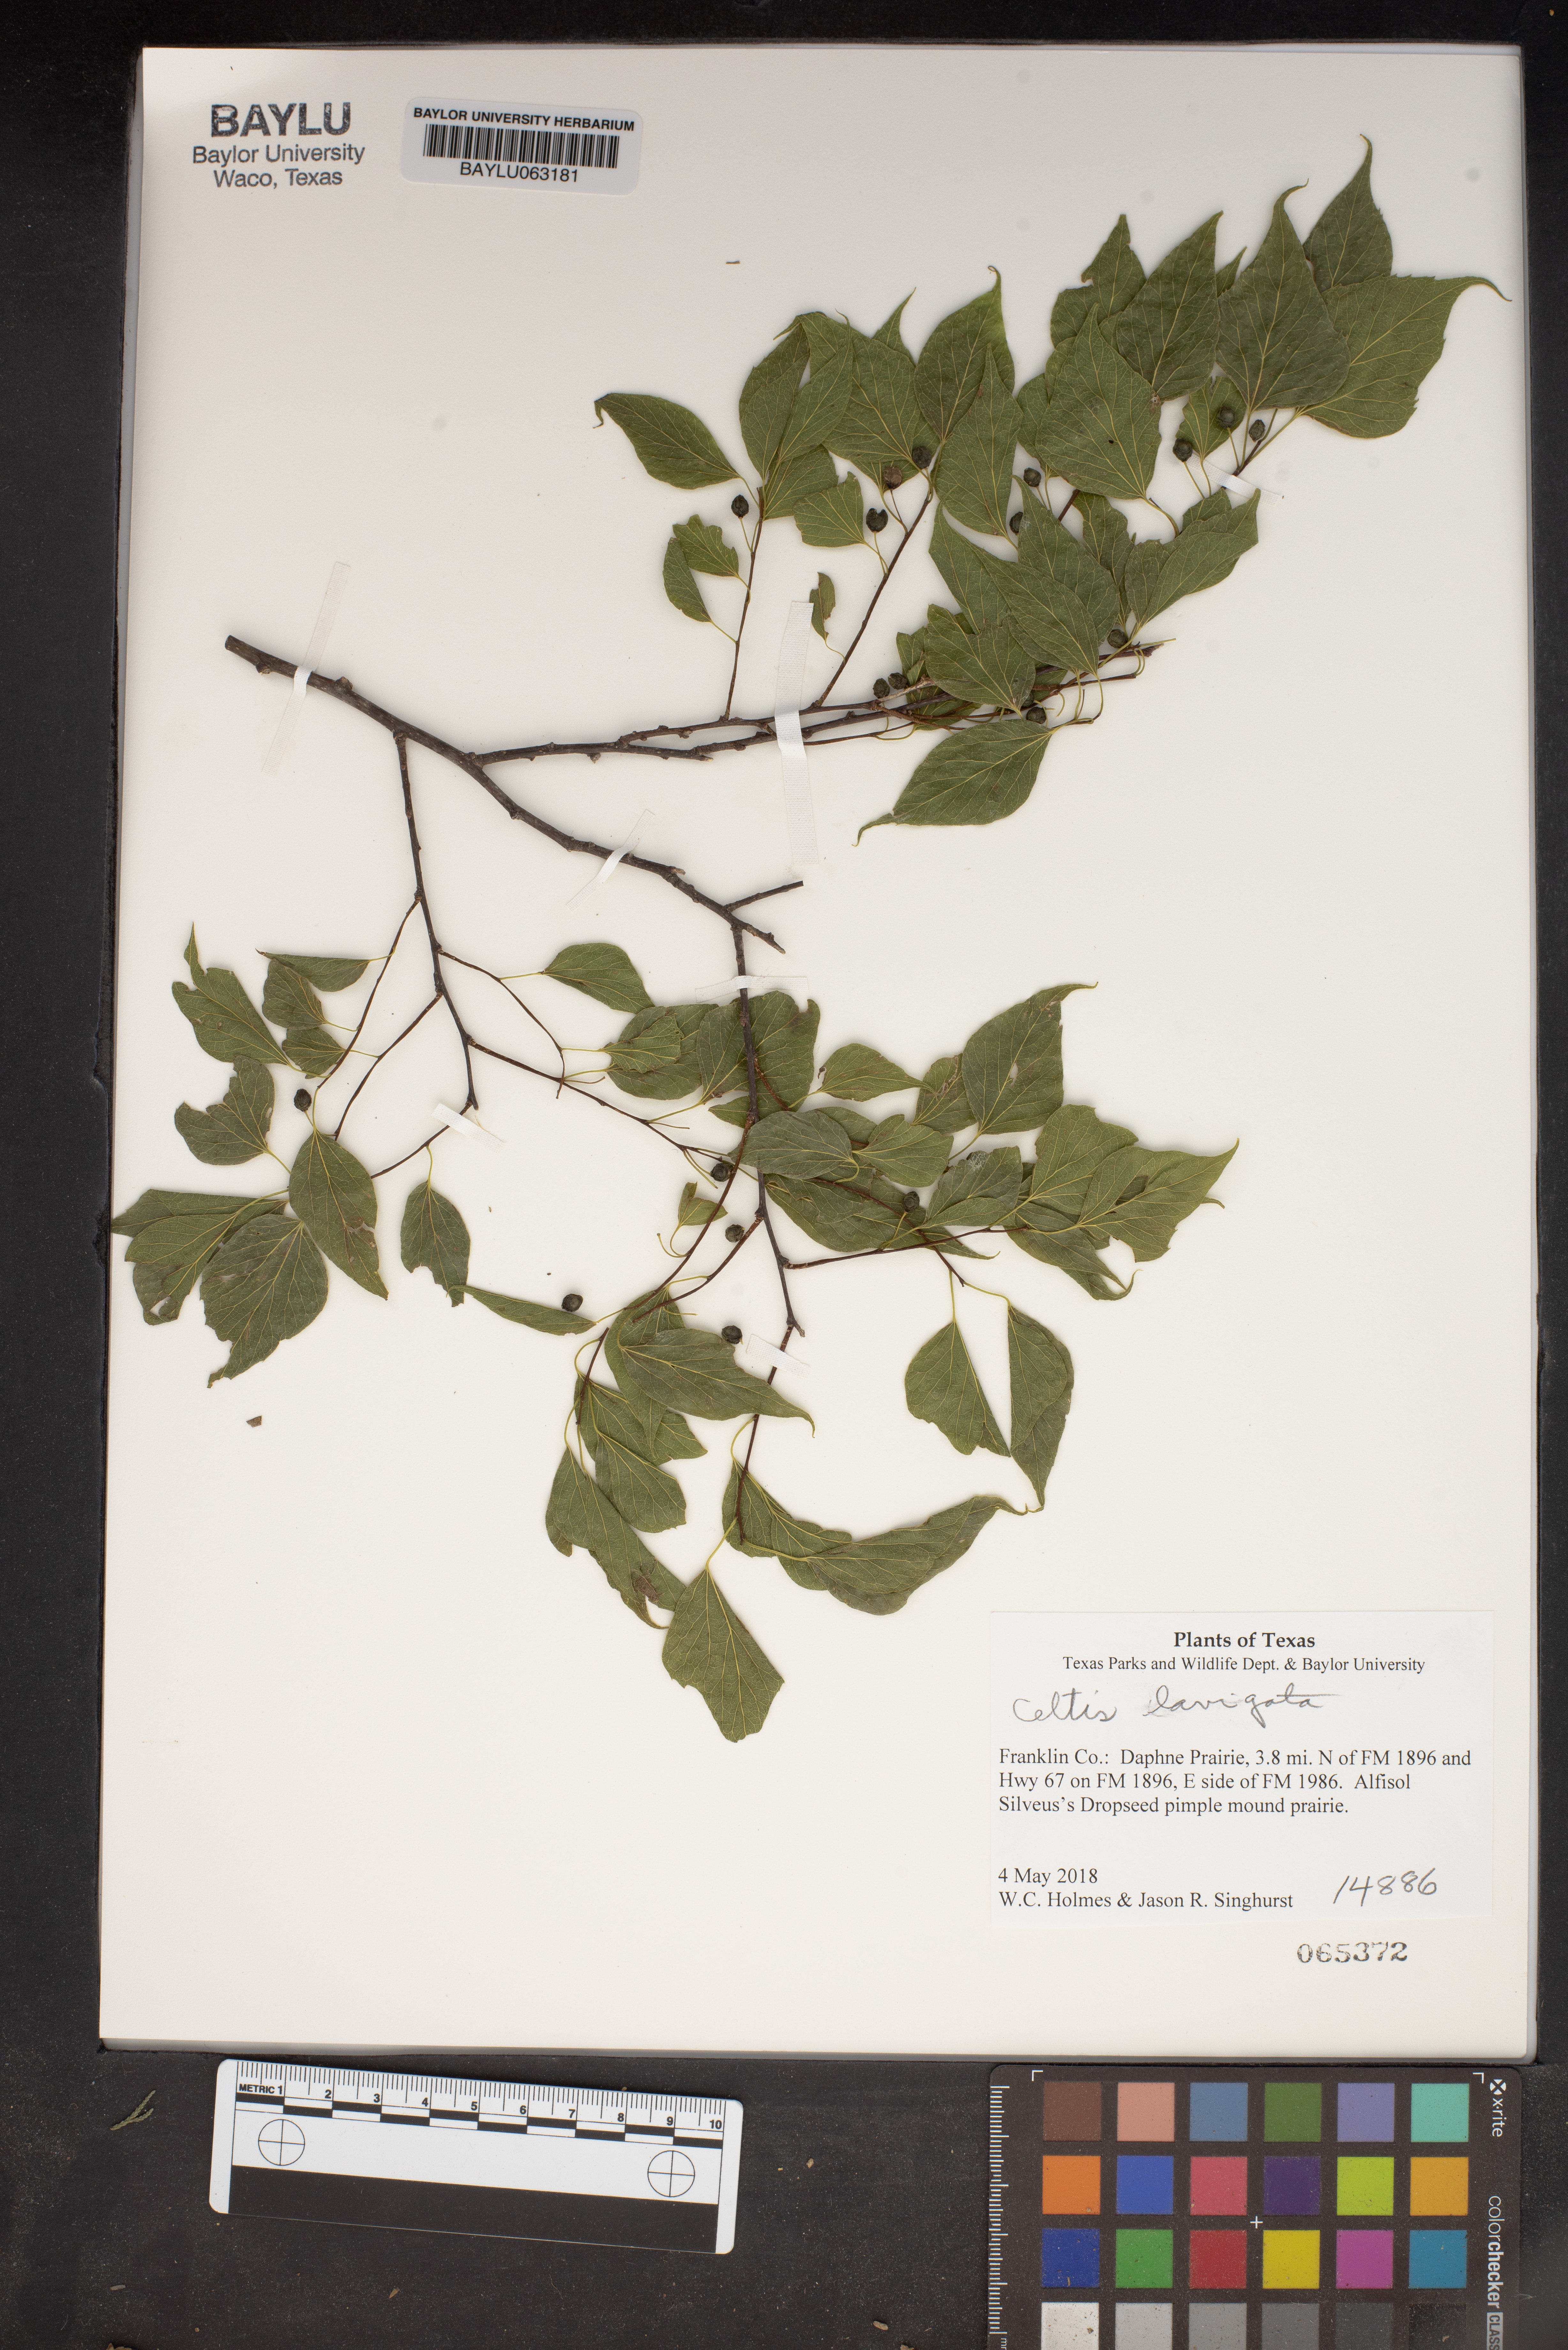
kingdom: Plantae
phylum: Tracheophyta
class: Magnoliopsida
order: Rosales
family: Cannabaceae
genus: Celtis
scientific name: Celtis laevigata
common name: Sugarberry
